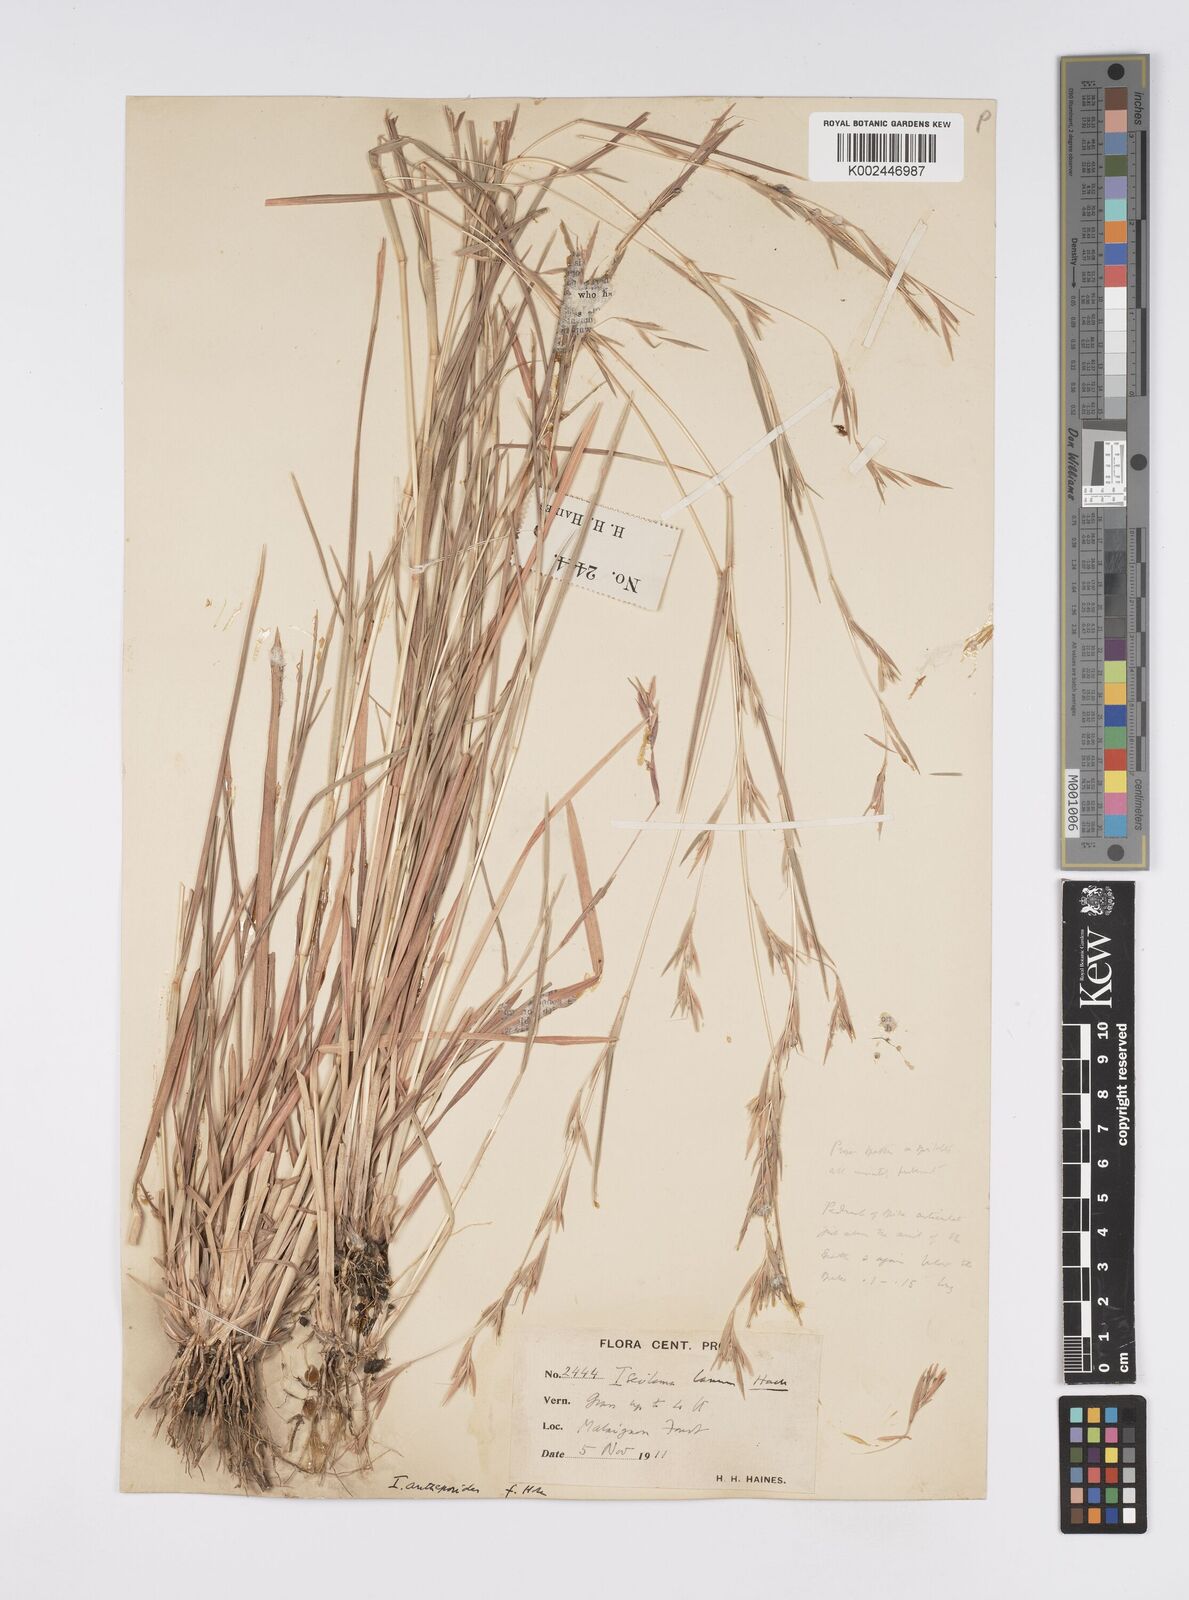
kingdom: Plantae
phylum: Tracheophyta
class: Liliopsida
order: Poales
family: Poaceae
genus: Iseilema
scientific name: Iseilema prostratum
